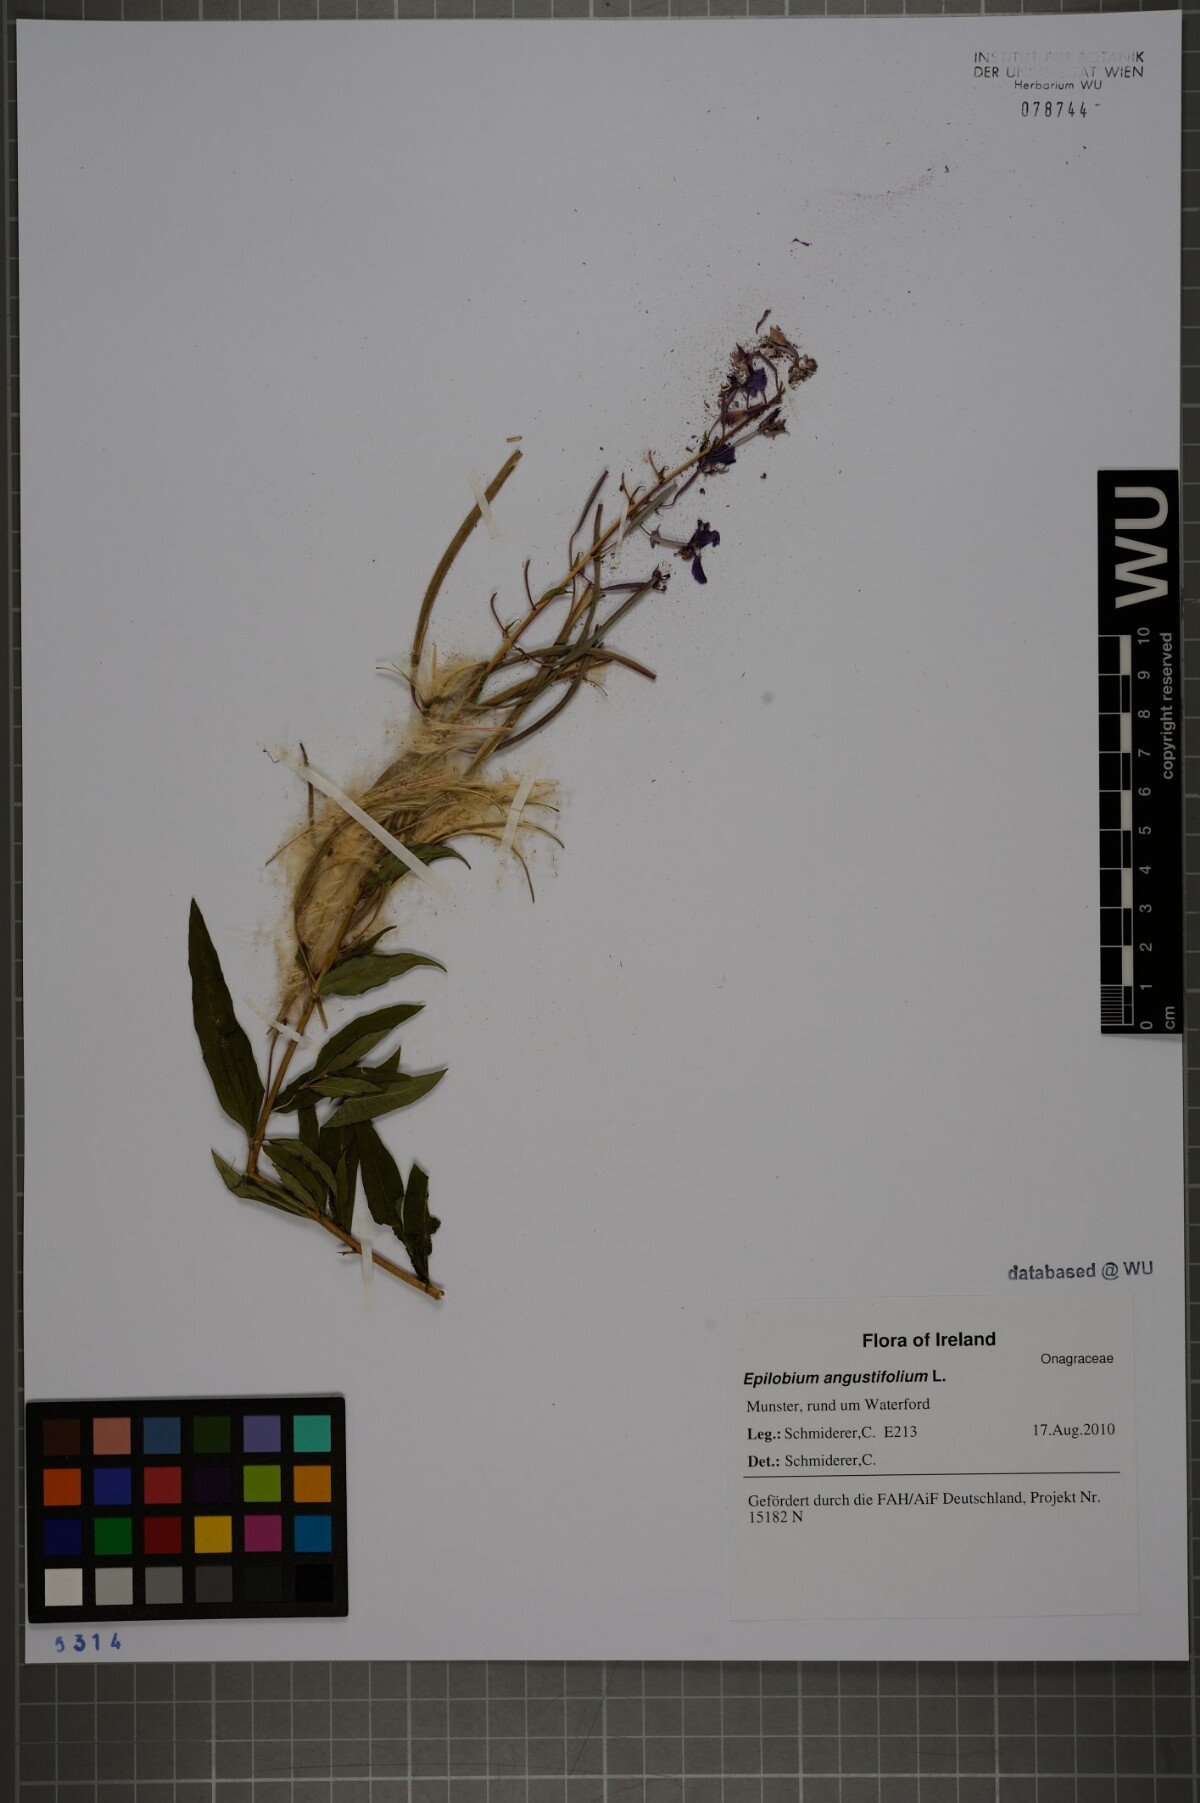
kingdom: Plantae
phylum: Tracheophyta
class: Magnoliopsida
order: Myrtales
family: Onagraceae
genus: Chamaenerion
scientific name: Chamaenerion angustifolium
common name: Fireweed
